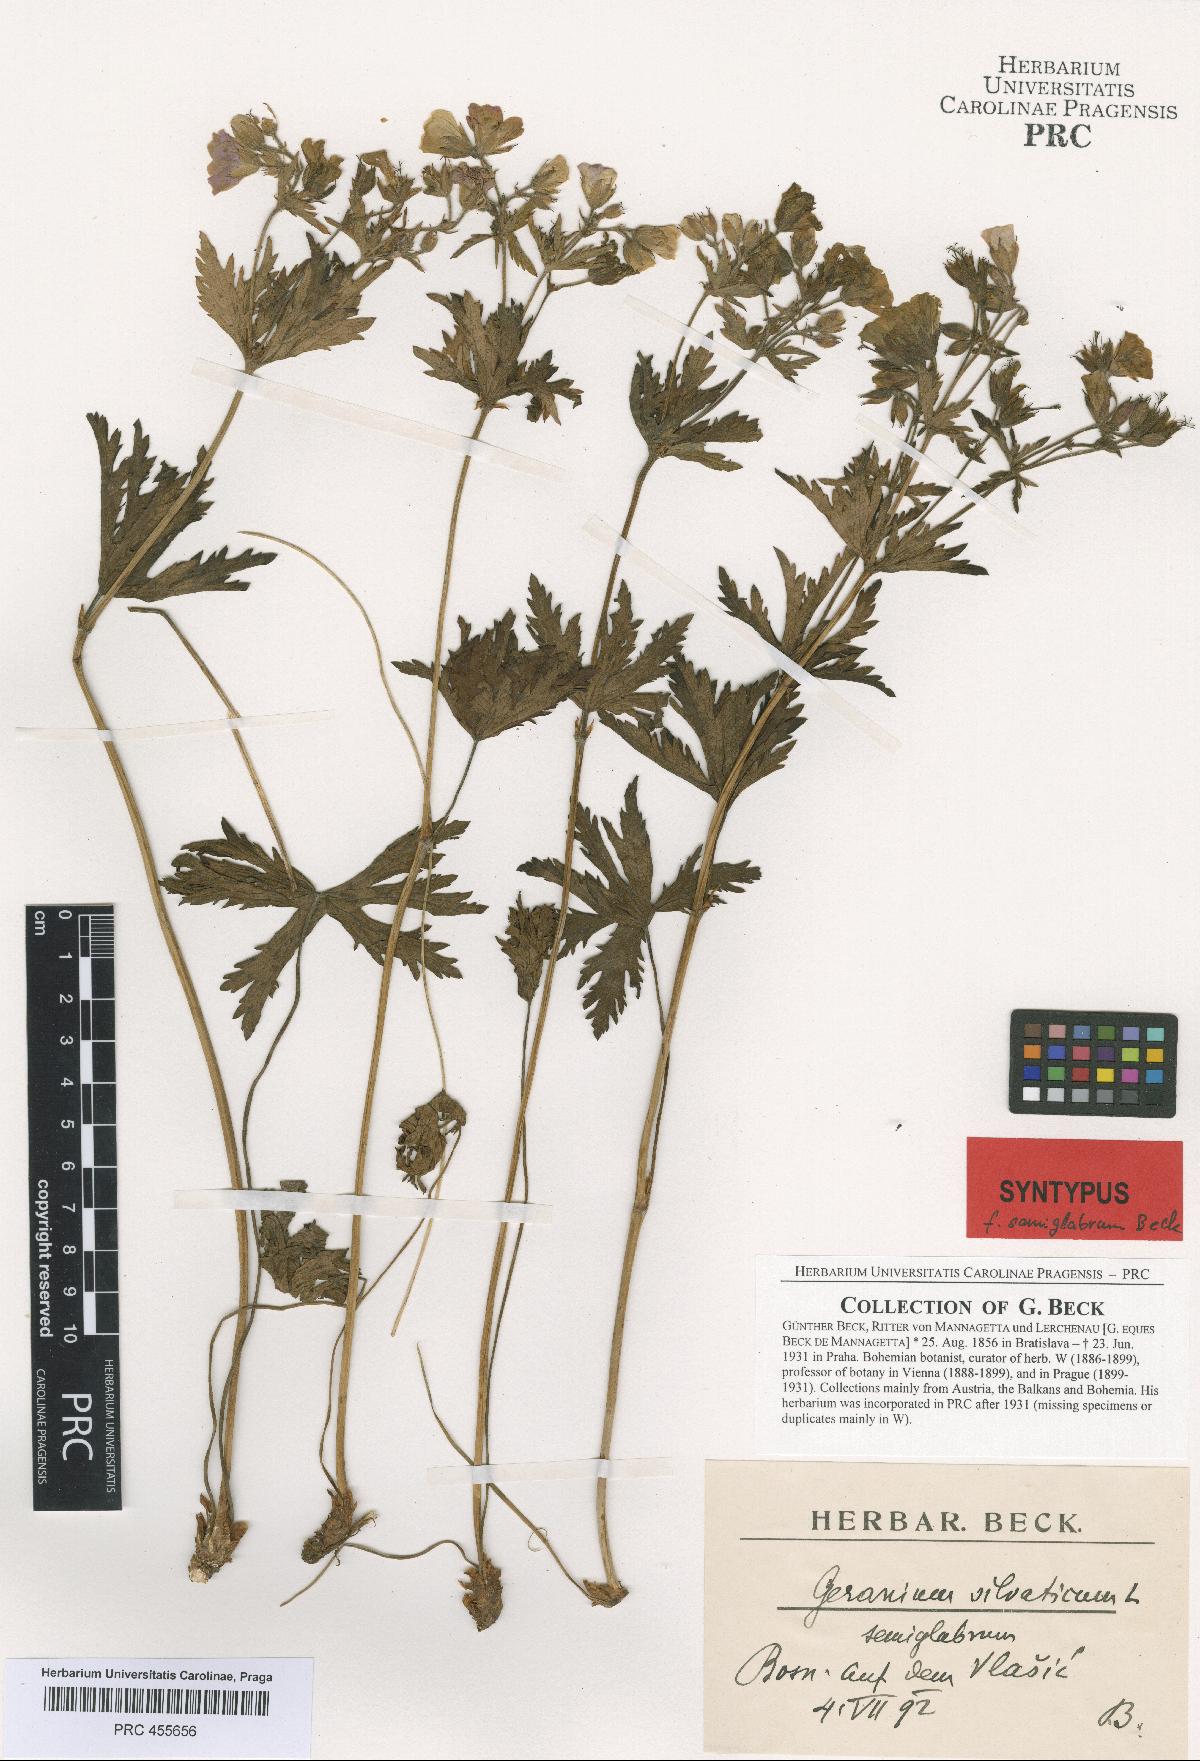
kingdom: Plantae
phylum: Tracheophyta
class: Magnoliopsida
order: Geraniales
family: Geraniaceae
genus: Geranium
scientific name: Geranium sylvaticum
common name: Wood crane's-bill
